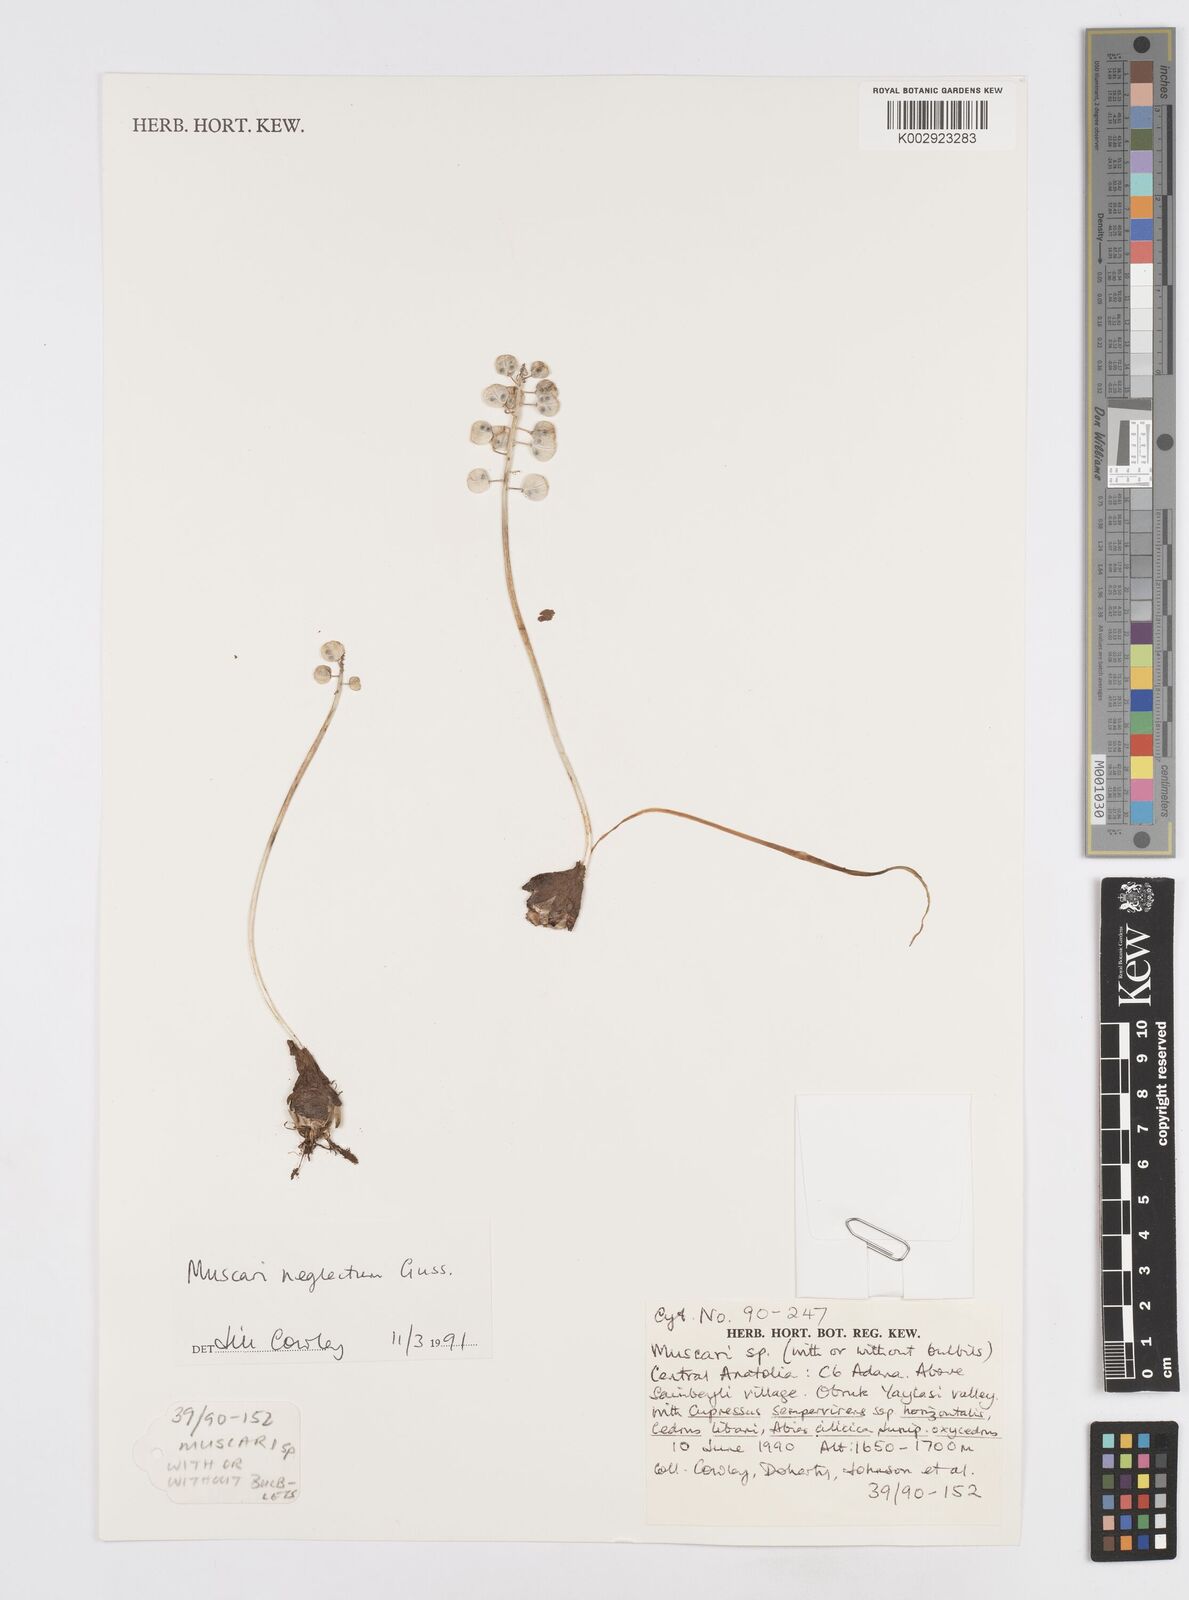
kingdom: Plantae
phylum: Tracheophyta
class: Liliopsida
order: Asparagales
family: Asparagaceae
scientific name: Asparagaceae
